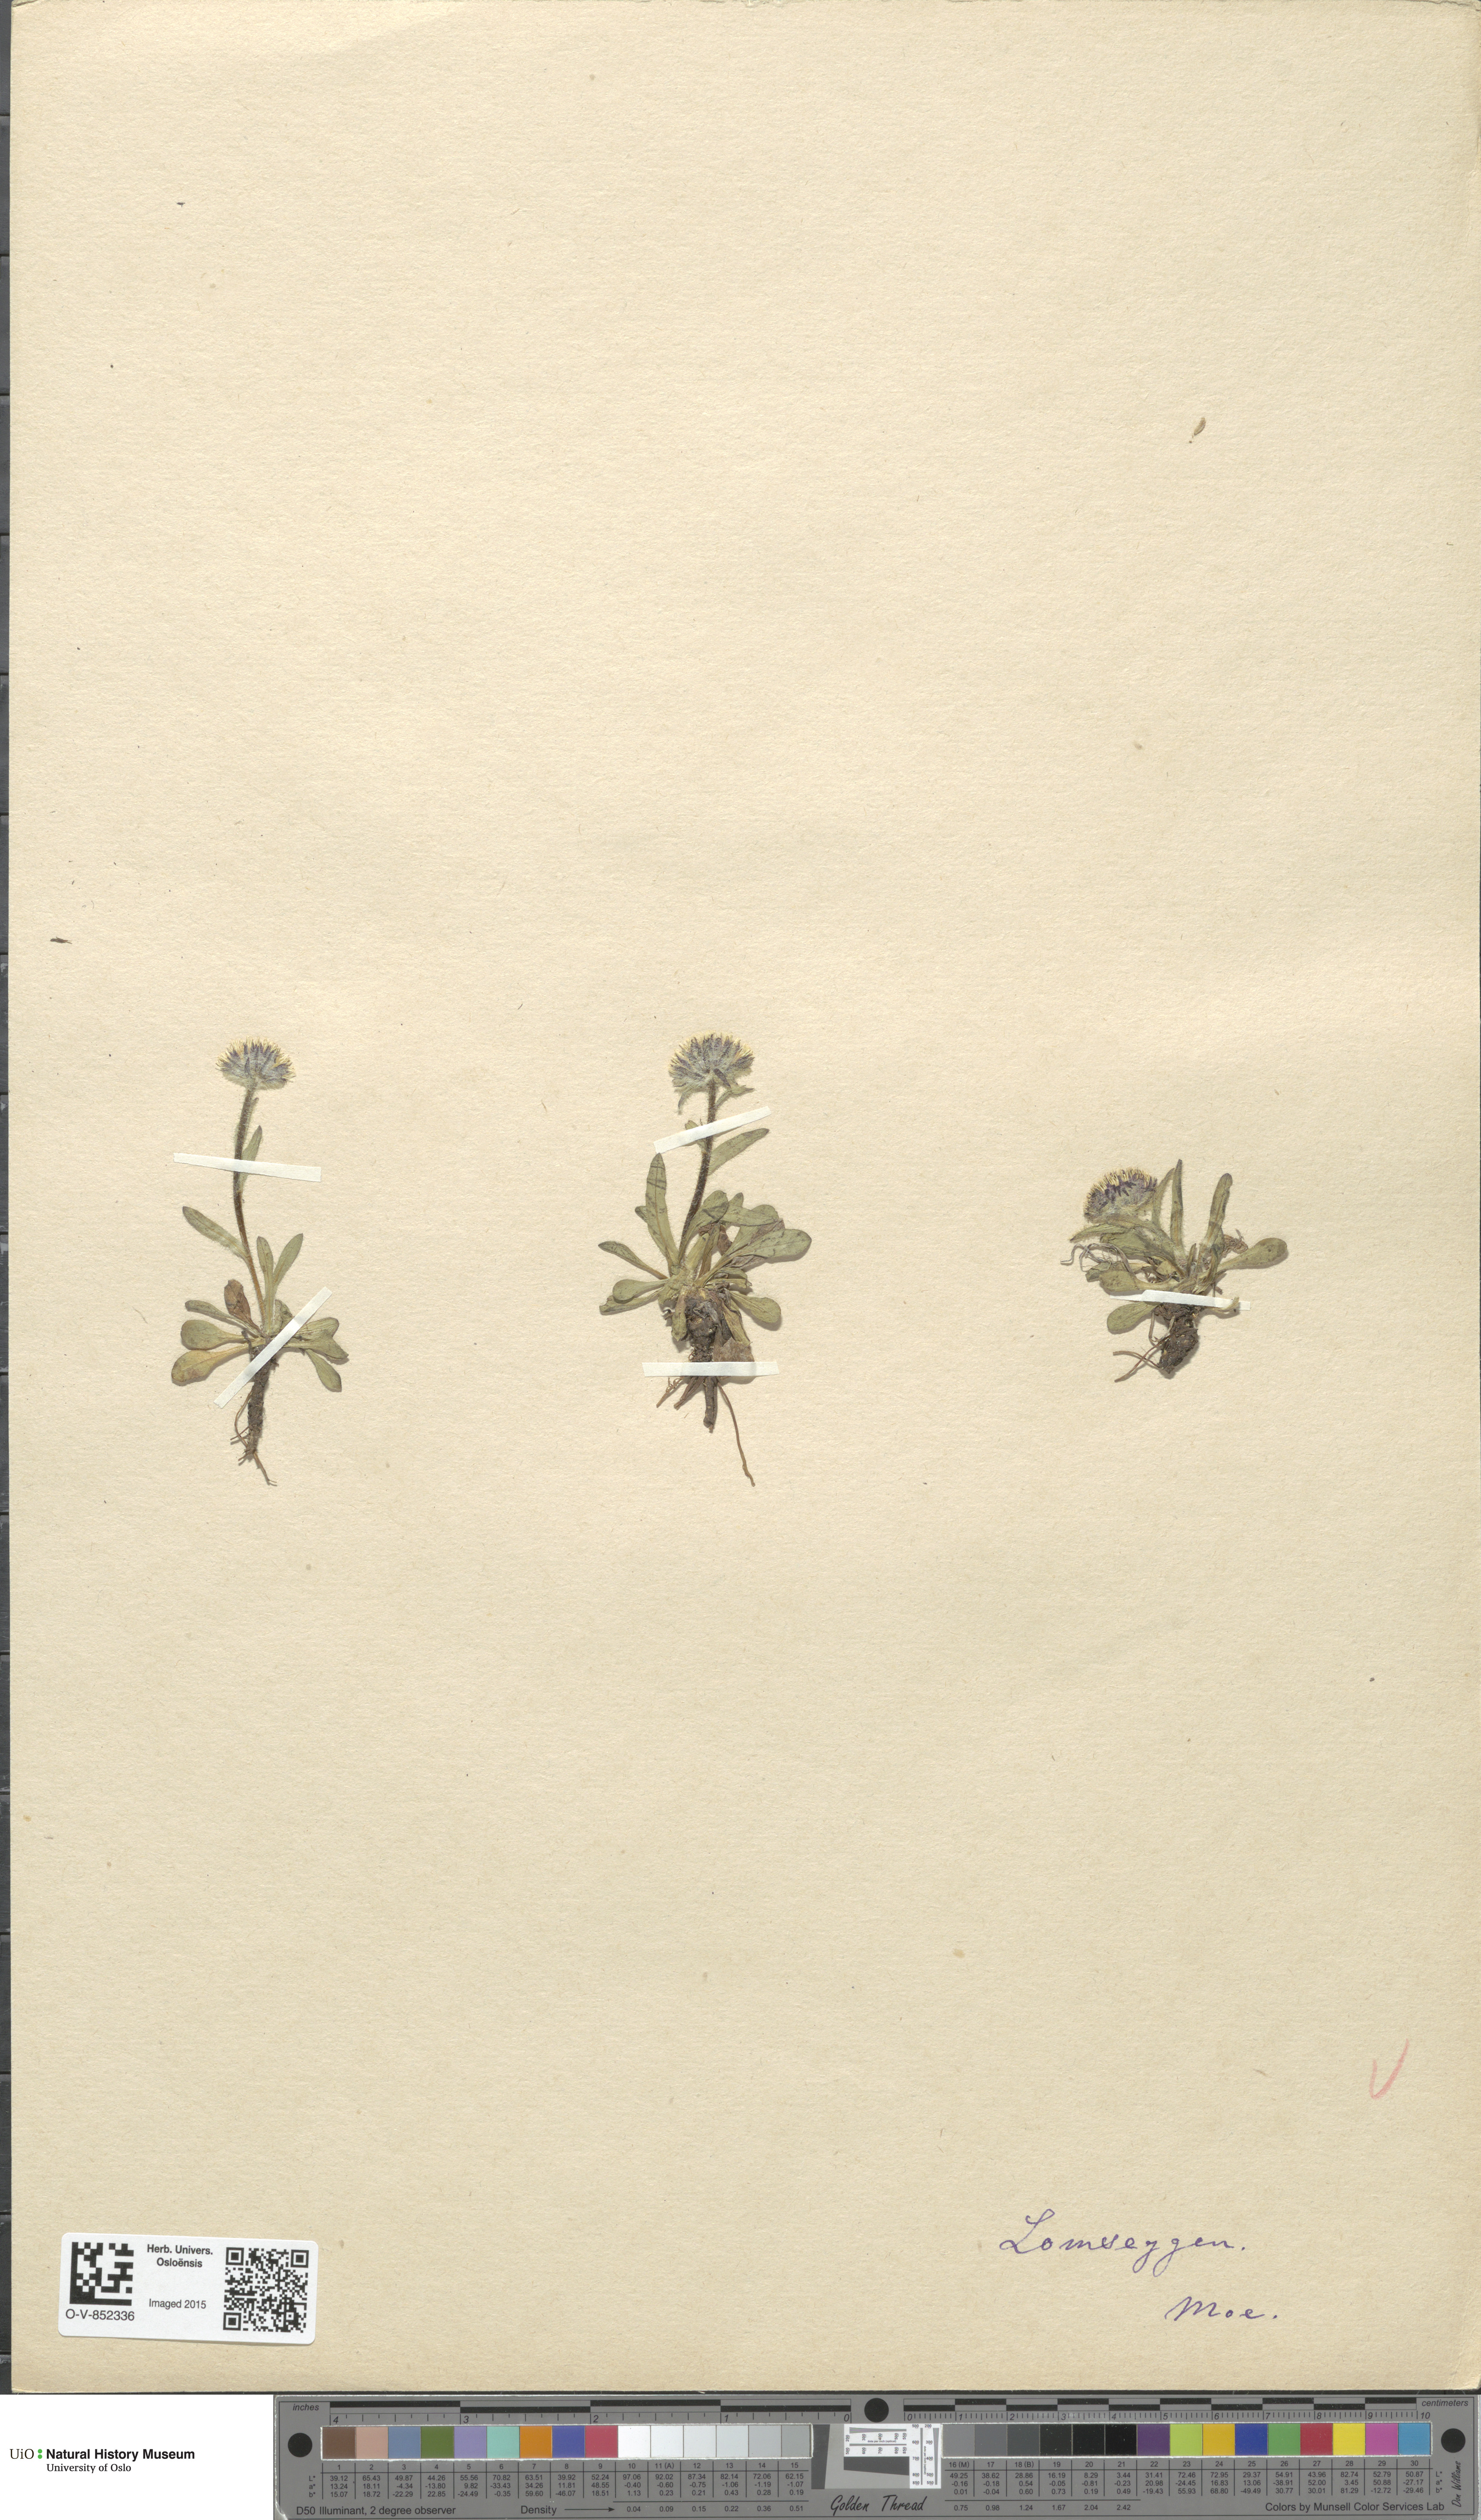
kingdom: Plantae
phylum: Tracheophyta
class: Magnoliopsida
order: Asterales
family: Asteraceae
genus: Erigeron
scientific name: Erigeron uniflorus
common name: Northern daisy
